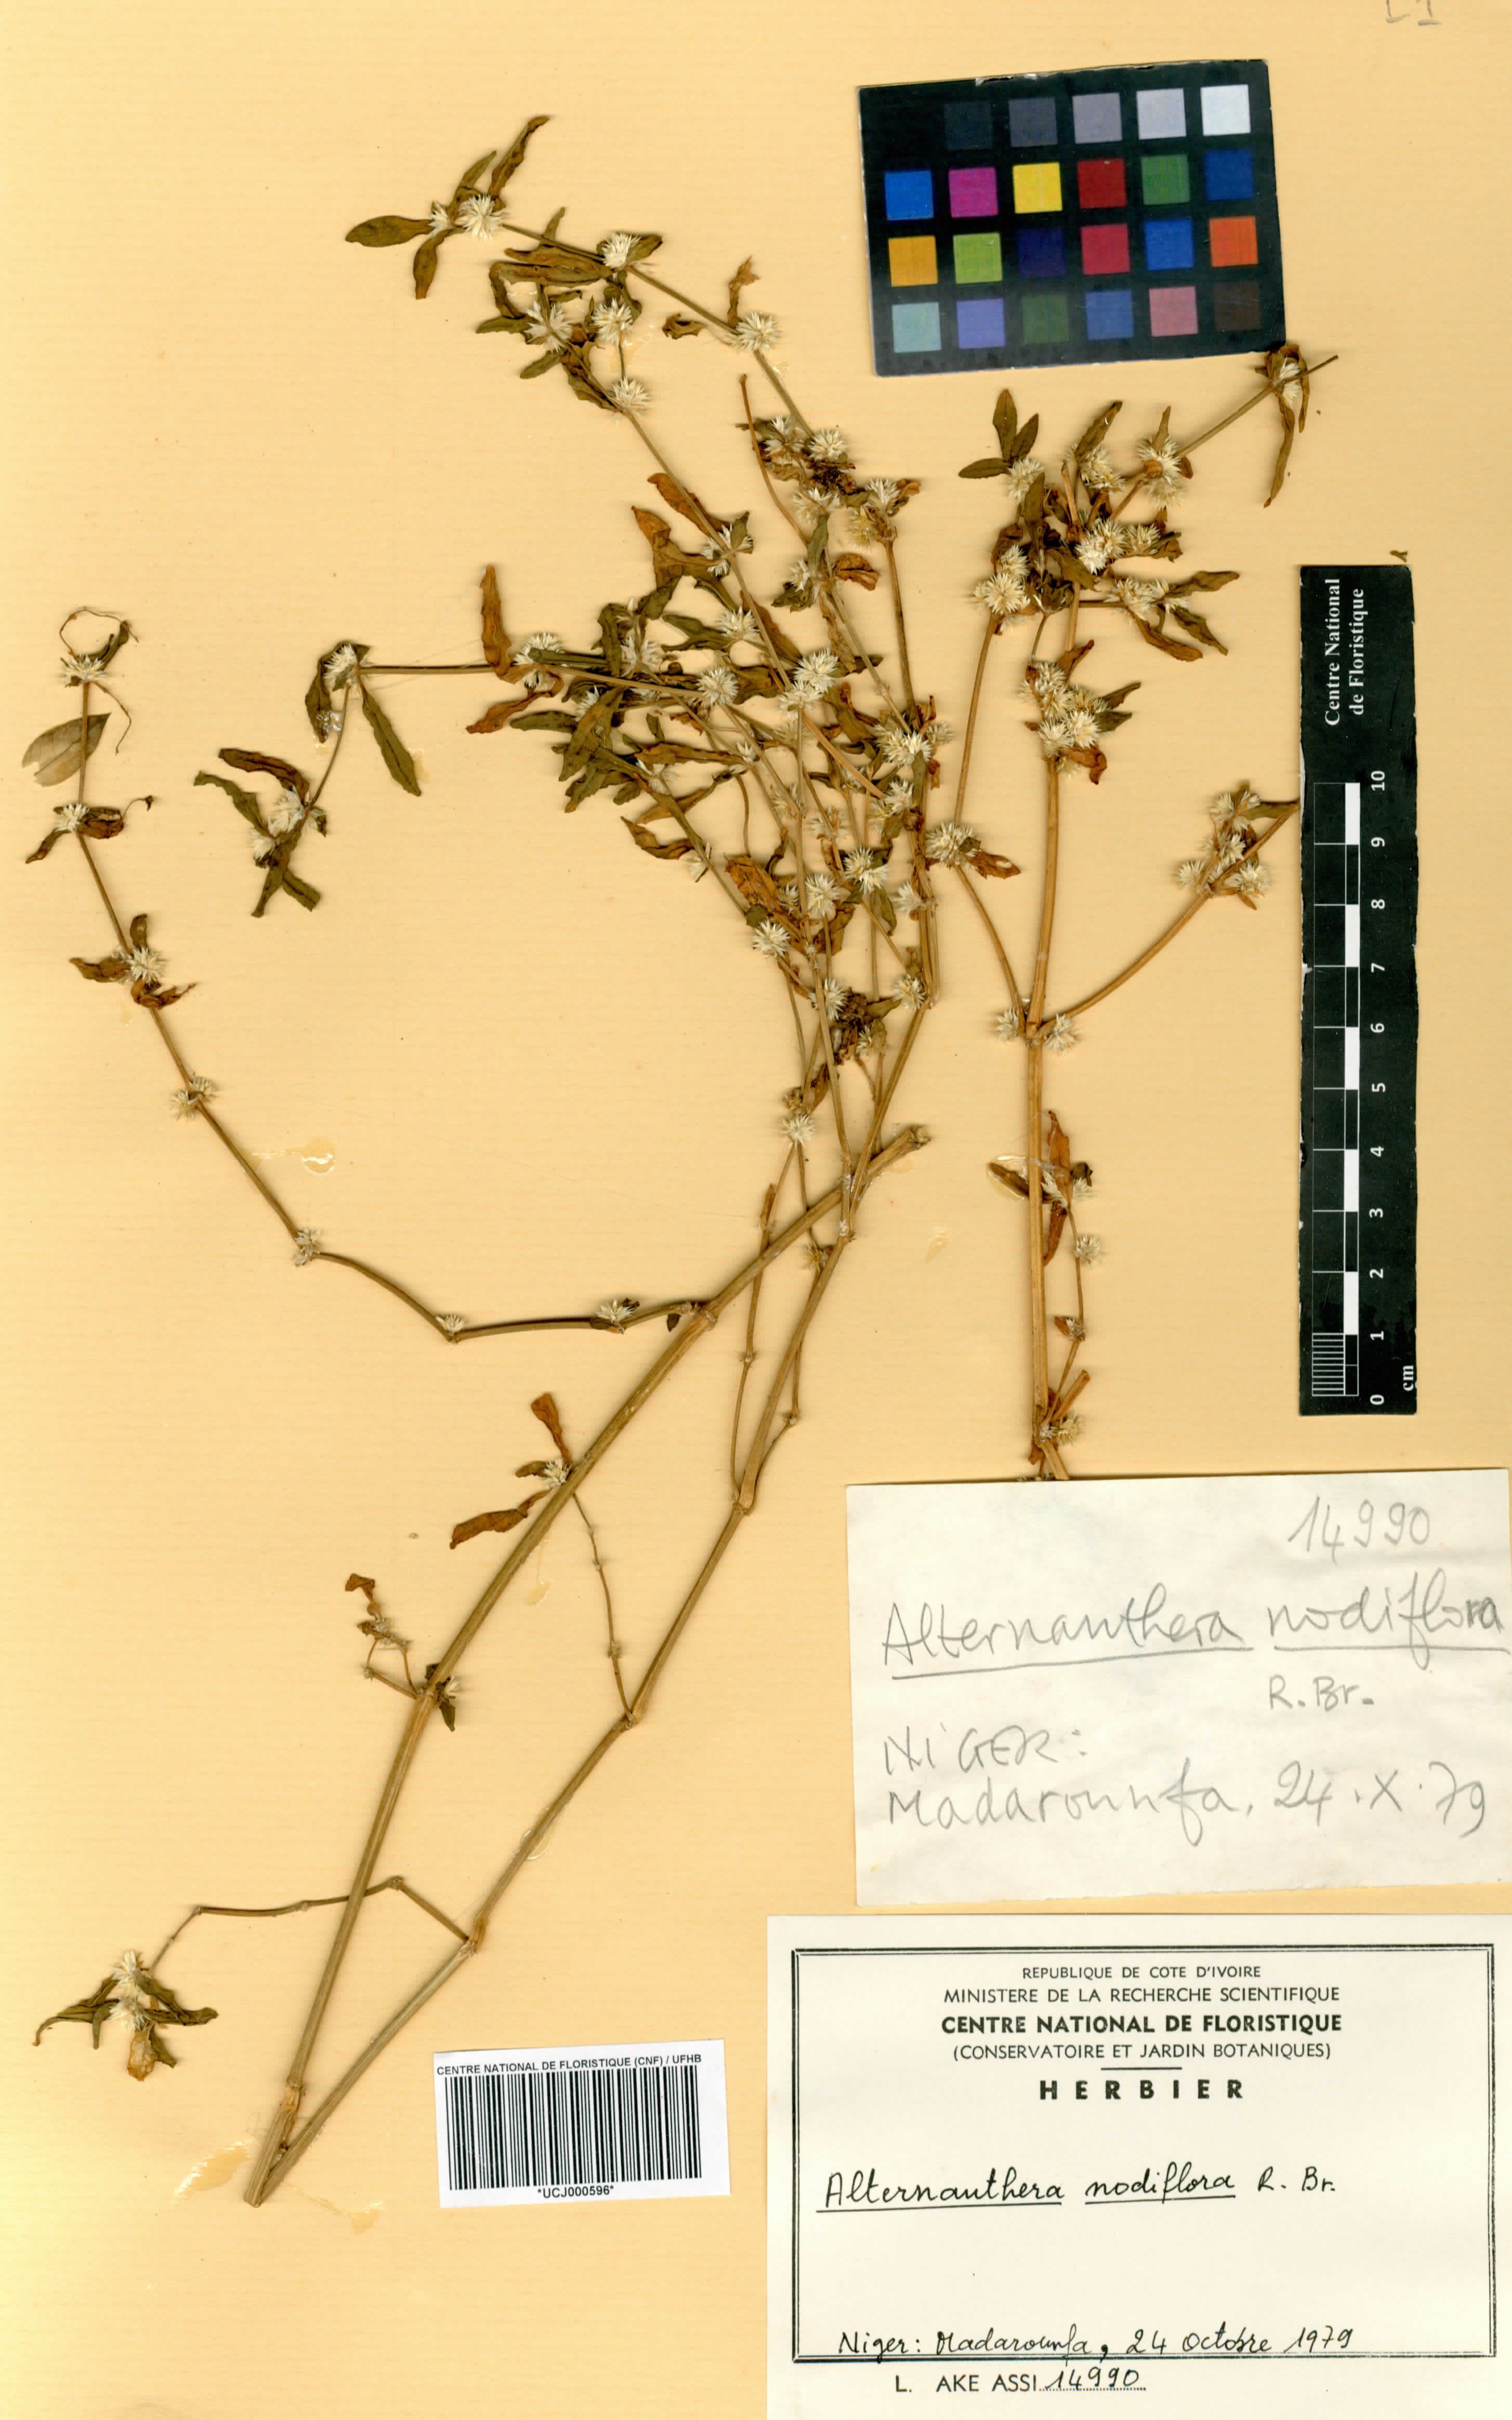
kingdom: Plantae
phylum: Tracheophyta
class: Magnoliopsida
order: Caryophyllales
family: Amaranthaceae
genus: Alternanthera
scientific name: Alternanthera sessilis
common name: Sessile joyweed
